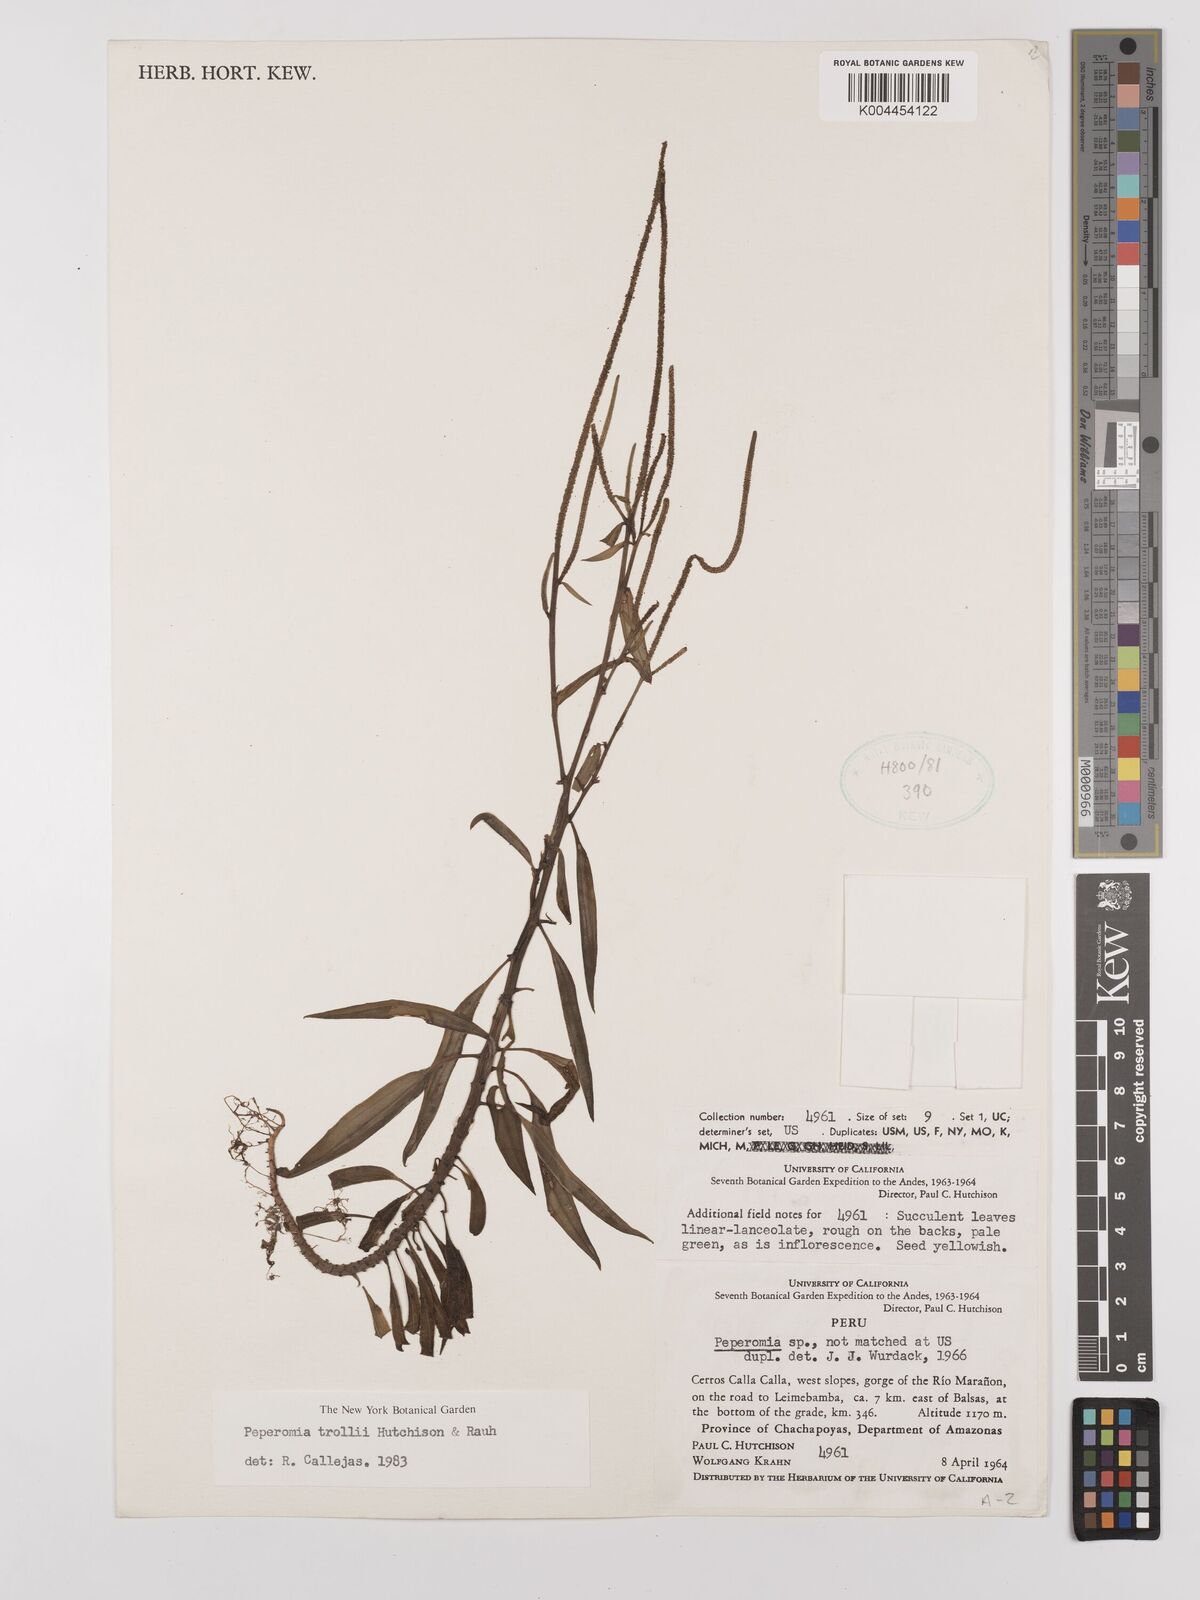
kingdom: Plantae
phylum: Tracheophyta
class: Magnoliopsida
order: Piperales
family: Piperaceae
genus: Peperomia
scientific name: Peperomia trollii
